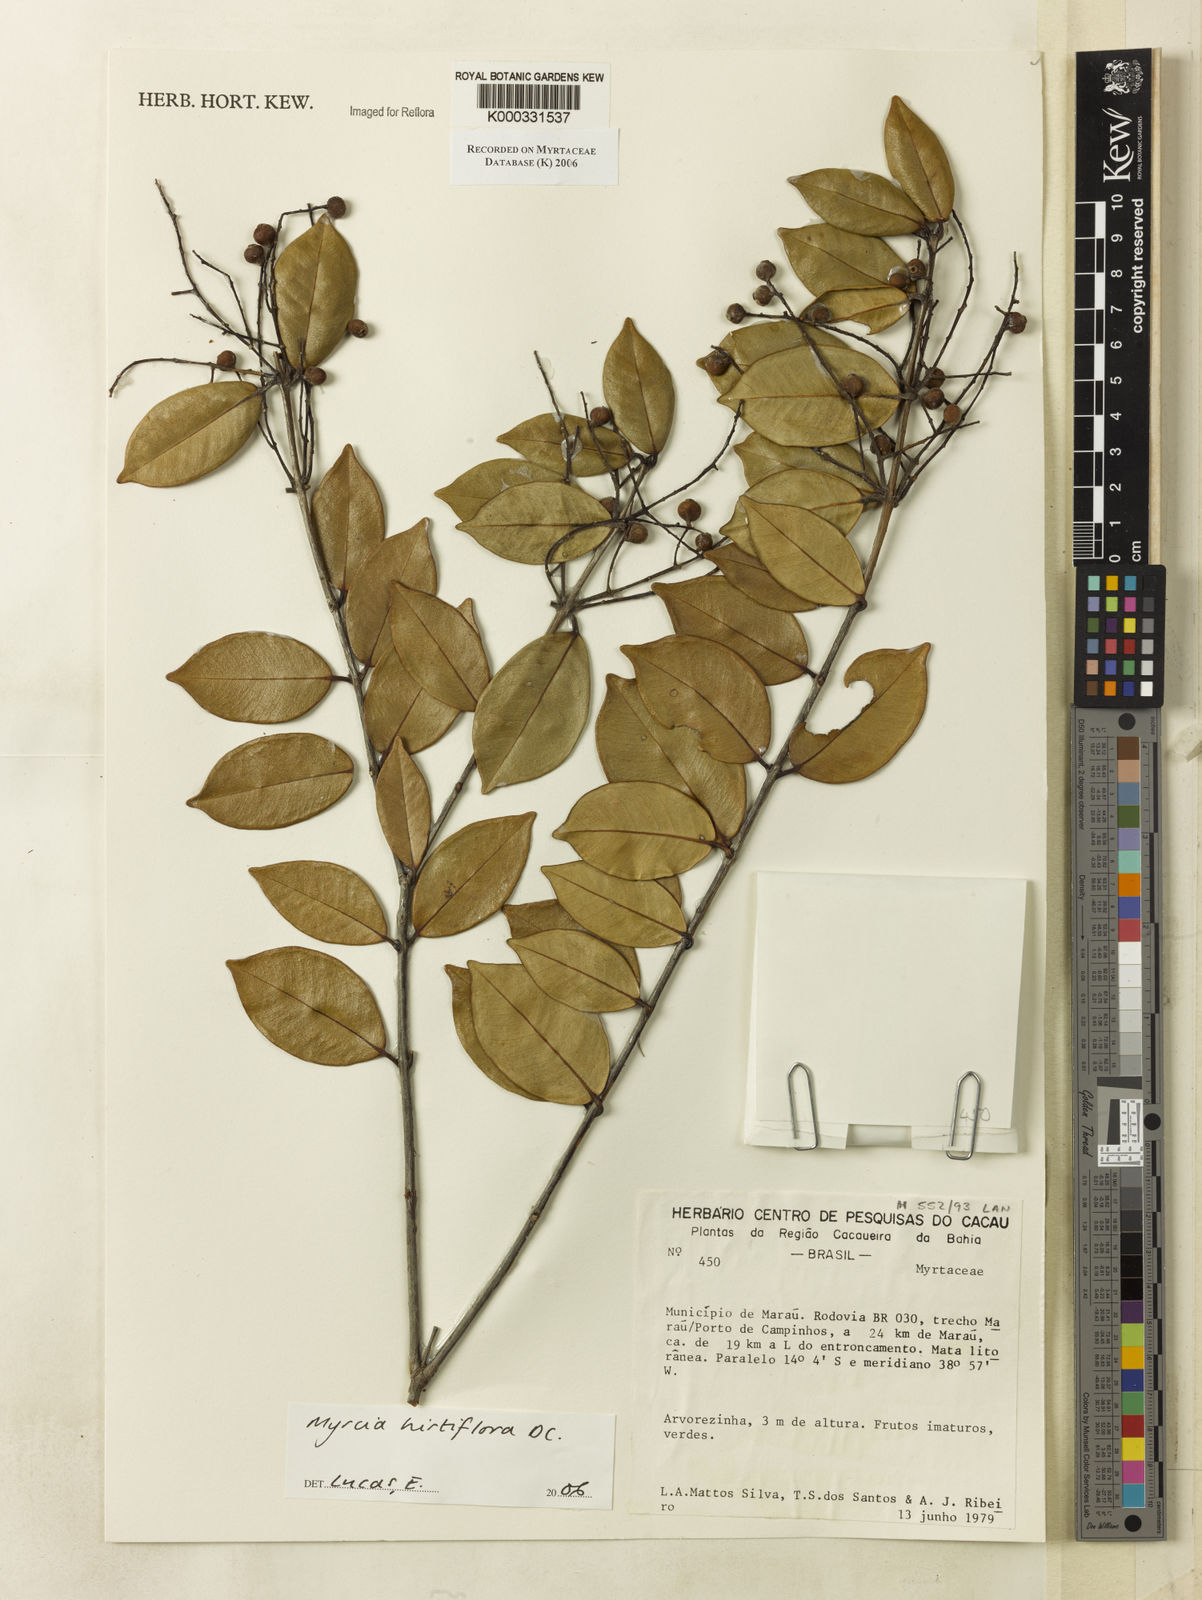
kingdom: Plantae
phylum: Tracheophyta
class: Magnoliopsida
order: Myrtales
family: Myrtaceae
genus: Myrcia
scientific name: Myrcia tomentosa
